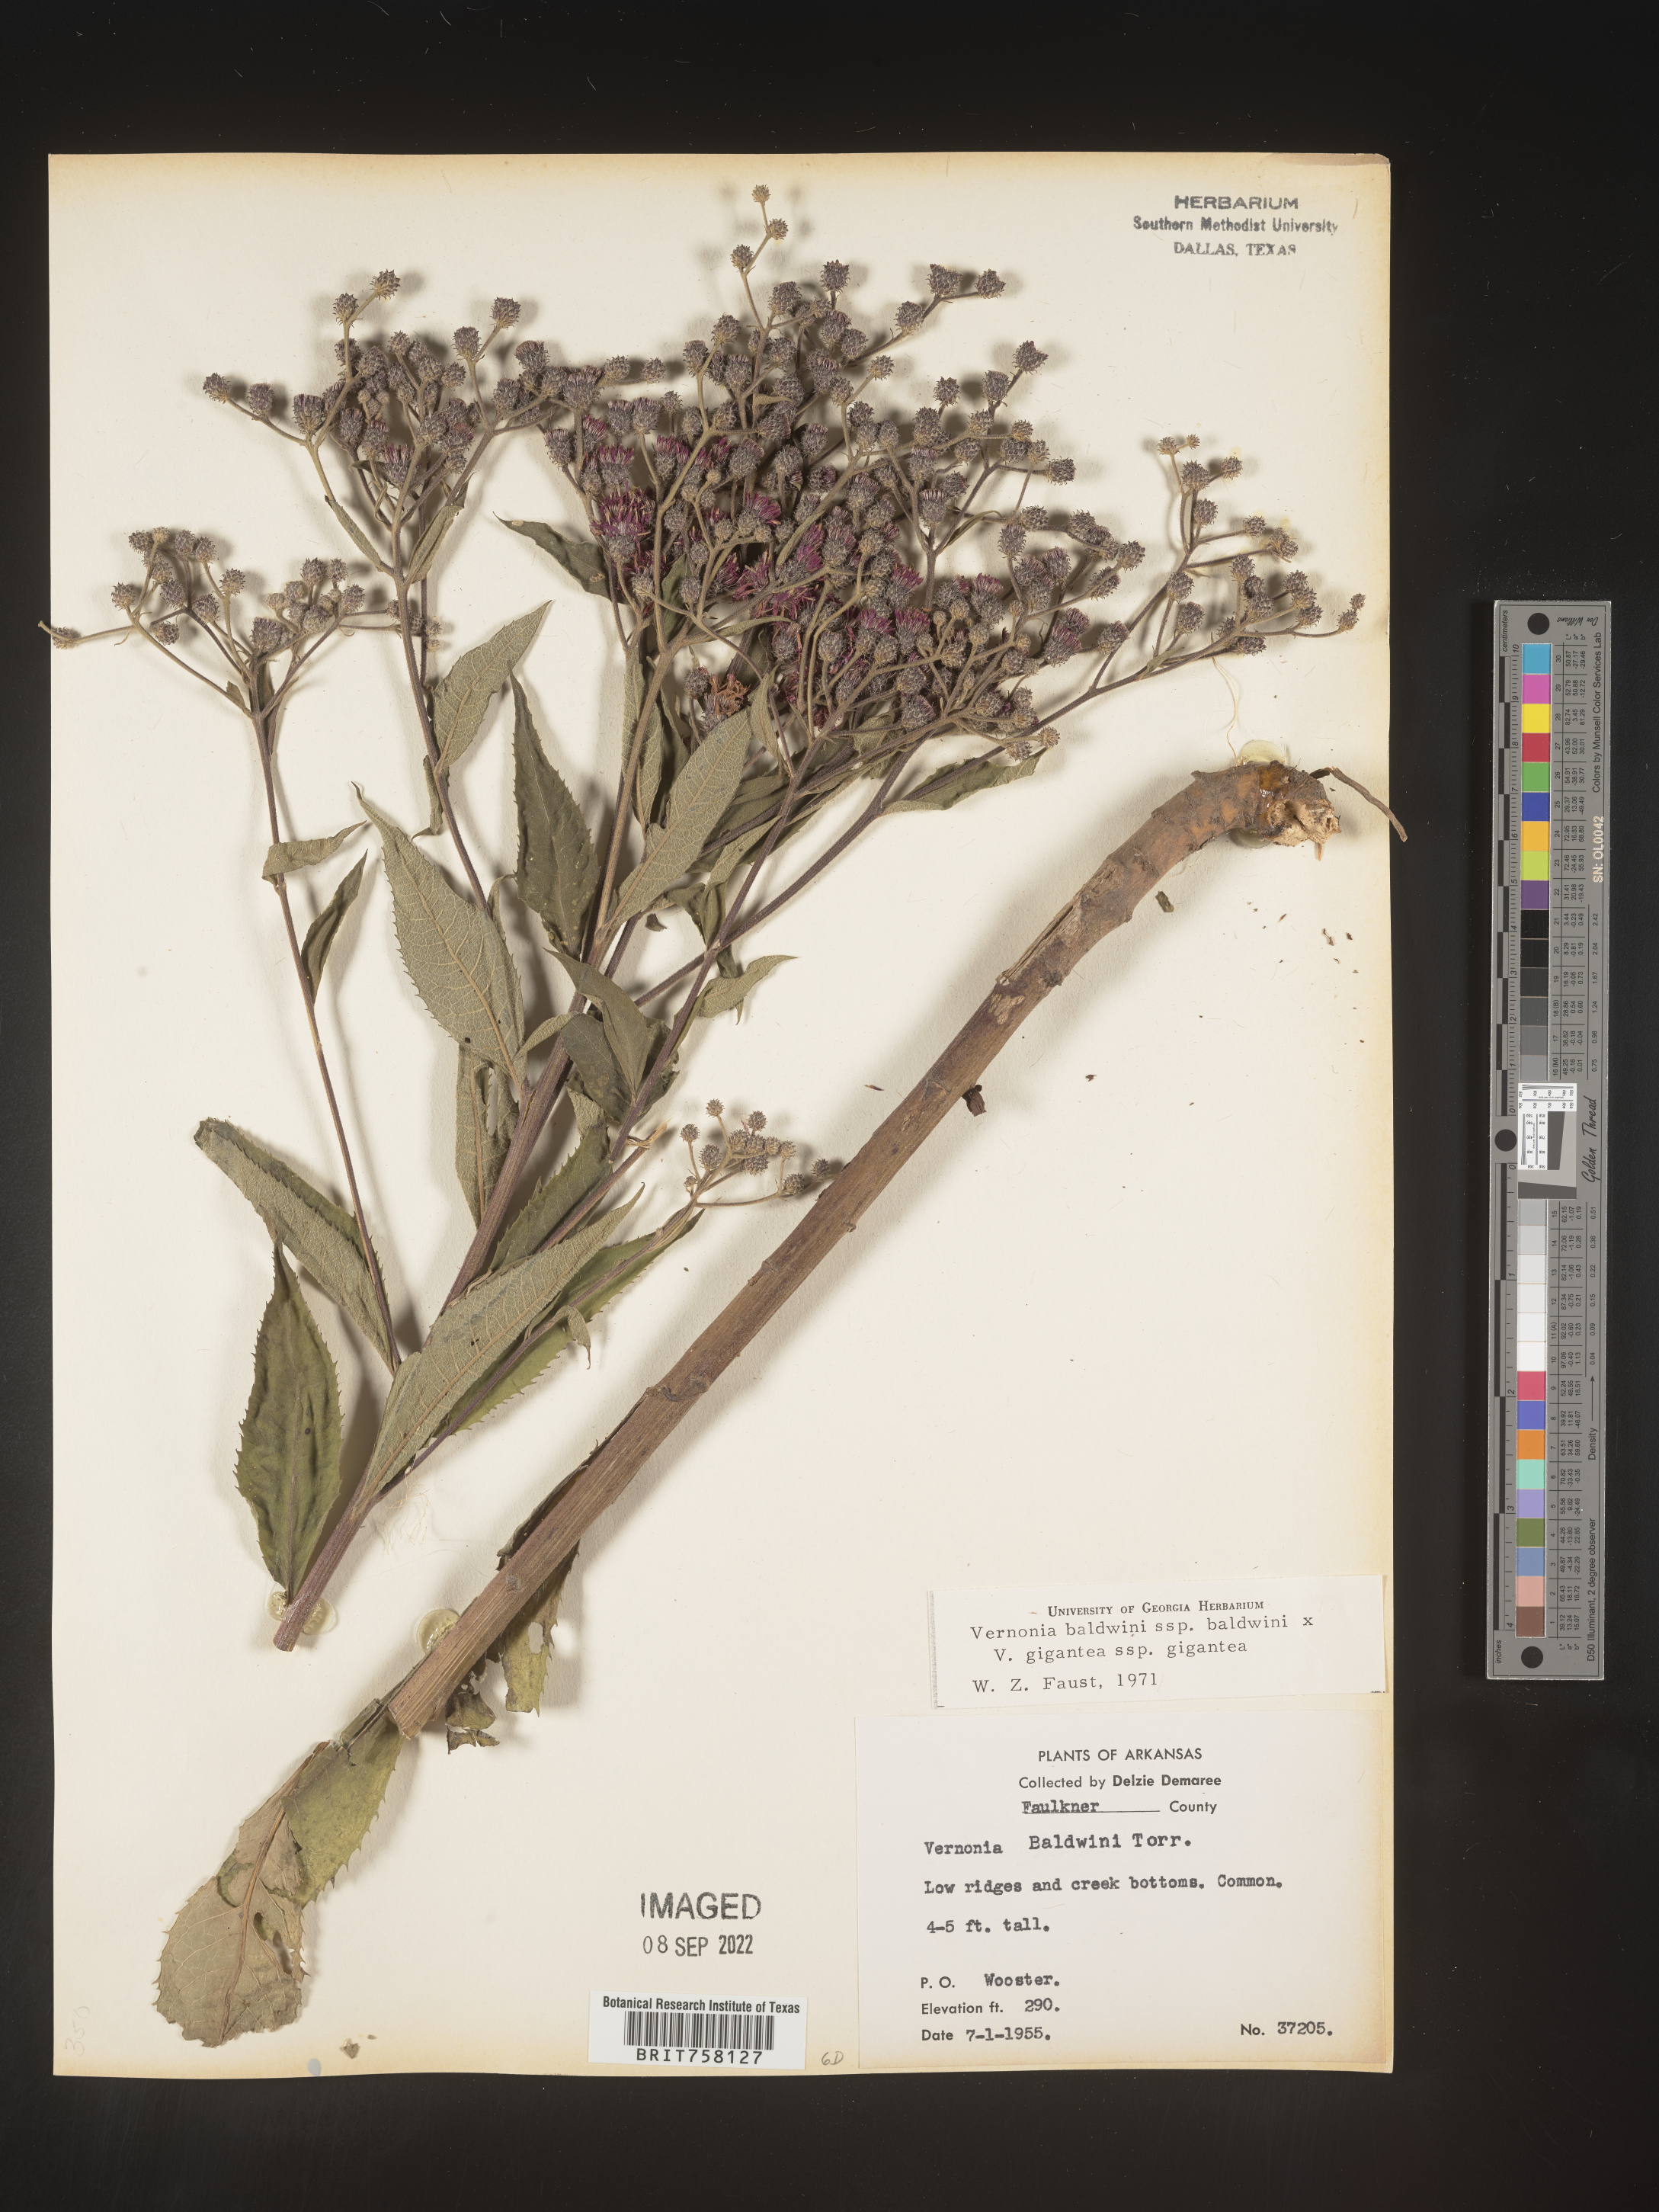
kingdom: Plantae
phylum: Tracheophyta
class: Magnoliopsida
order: Asterales
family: Asteraceae
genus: Vernonia
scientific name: Vernonia baldwinii
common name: Western ironweed
